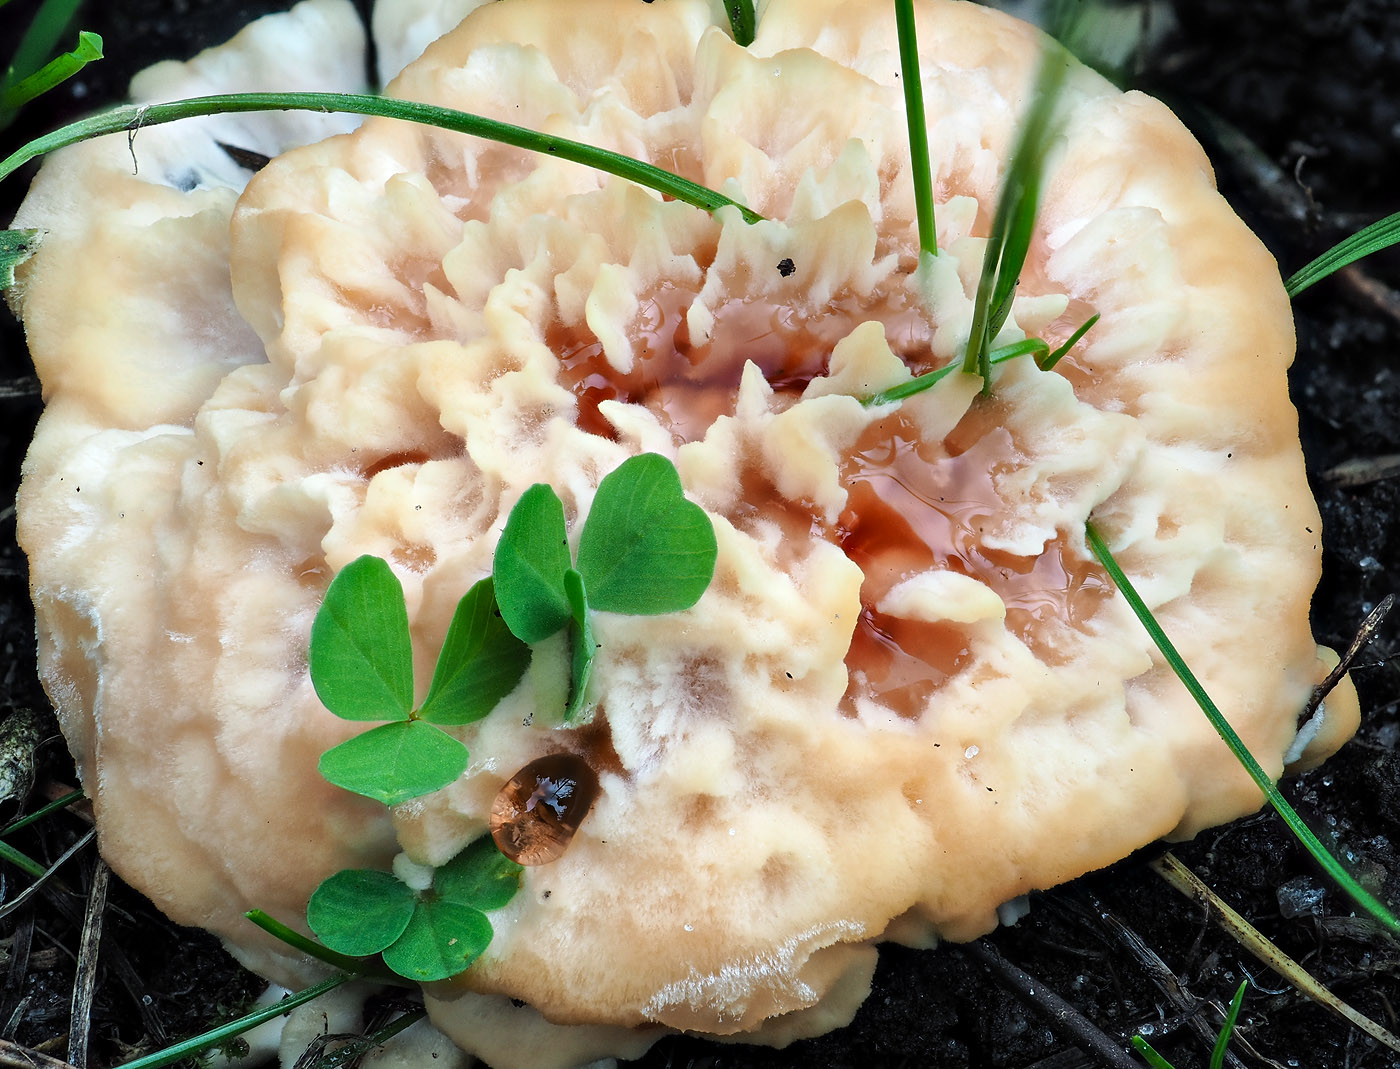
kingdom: Fungi
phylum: Basidiomycota
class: Agaricomycetes
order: Polyporales
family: Podoscyphaceae
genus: Abortiporus
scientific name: Abortiporus biennis
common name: rødmende pjalteporesvamp
